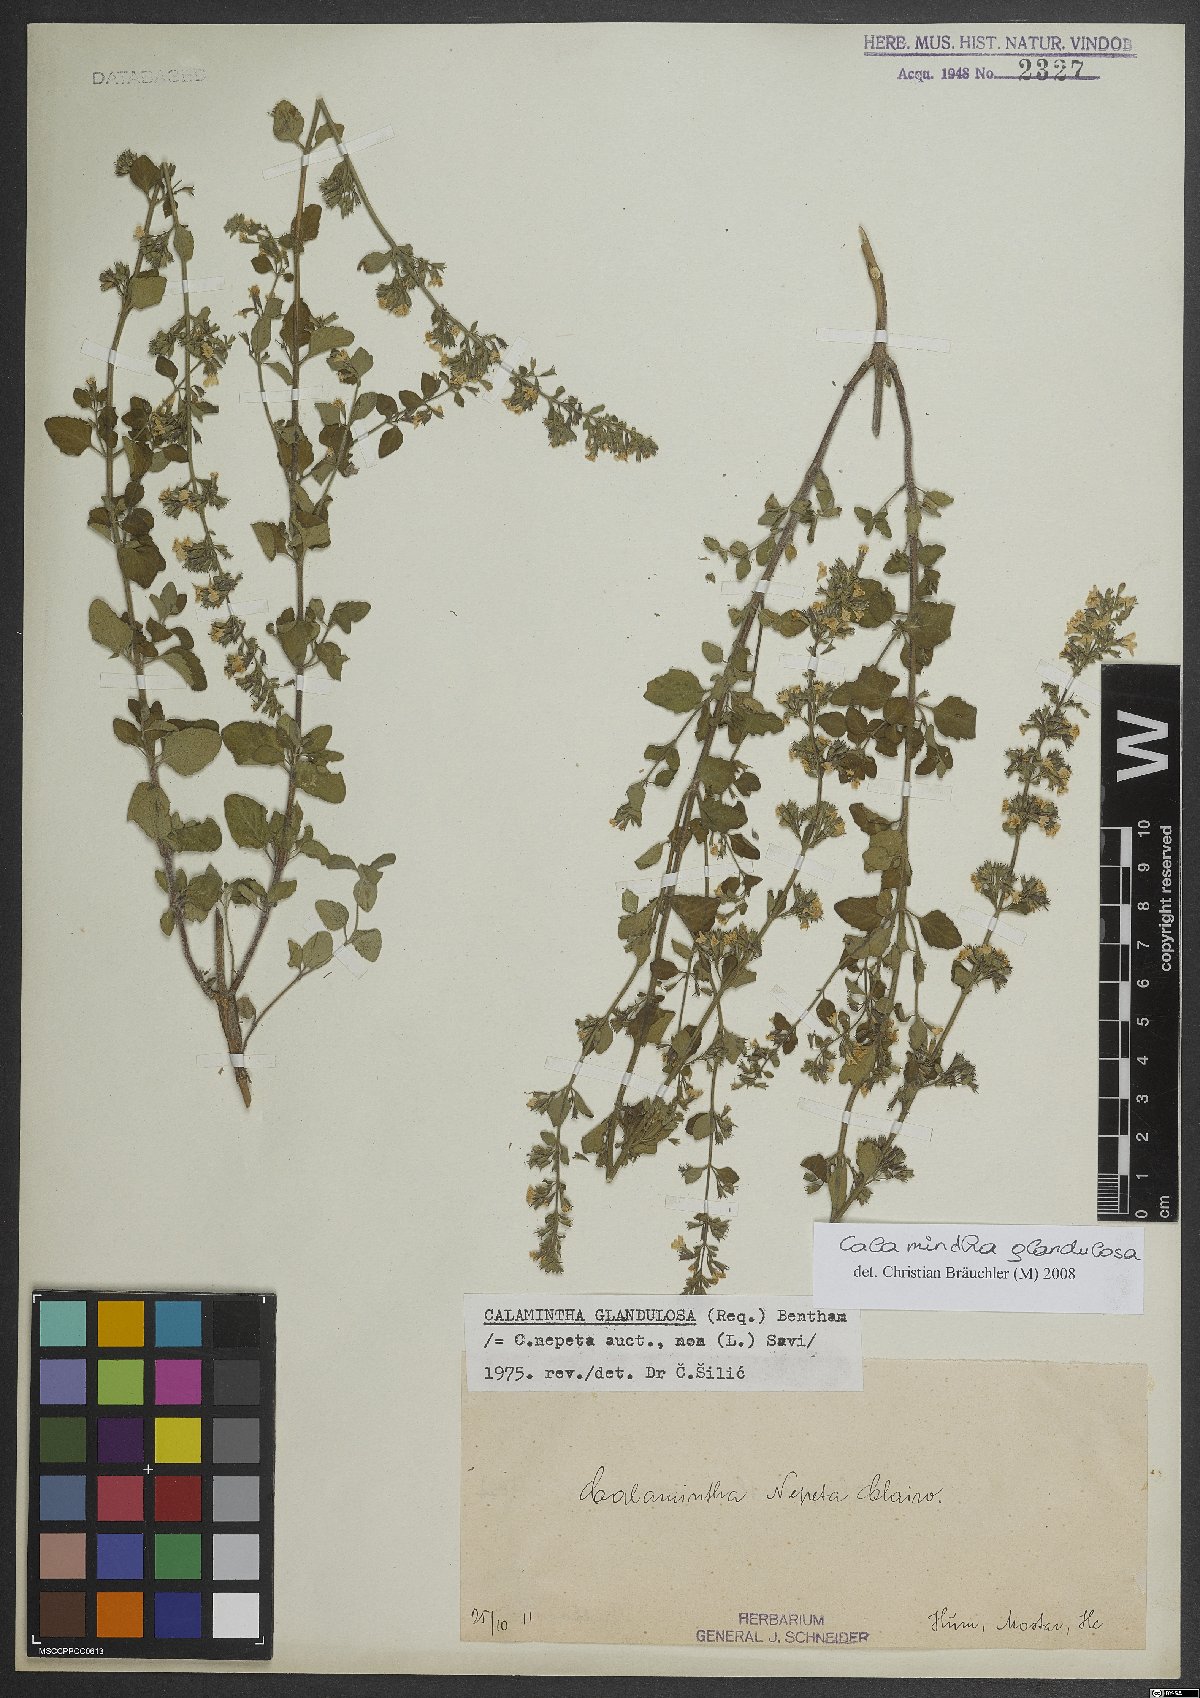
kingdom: Plantae
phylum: Tracheophyta
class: Magnoliopsida
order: Lamiales
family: Lamiaceae
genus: Clinopodium
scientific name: Clinopodium nepeta
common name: Lesser calamint
